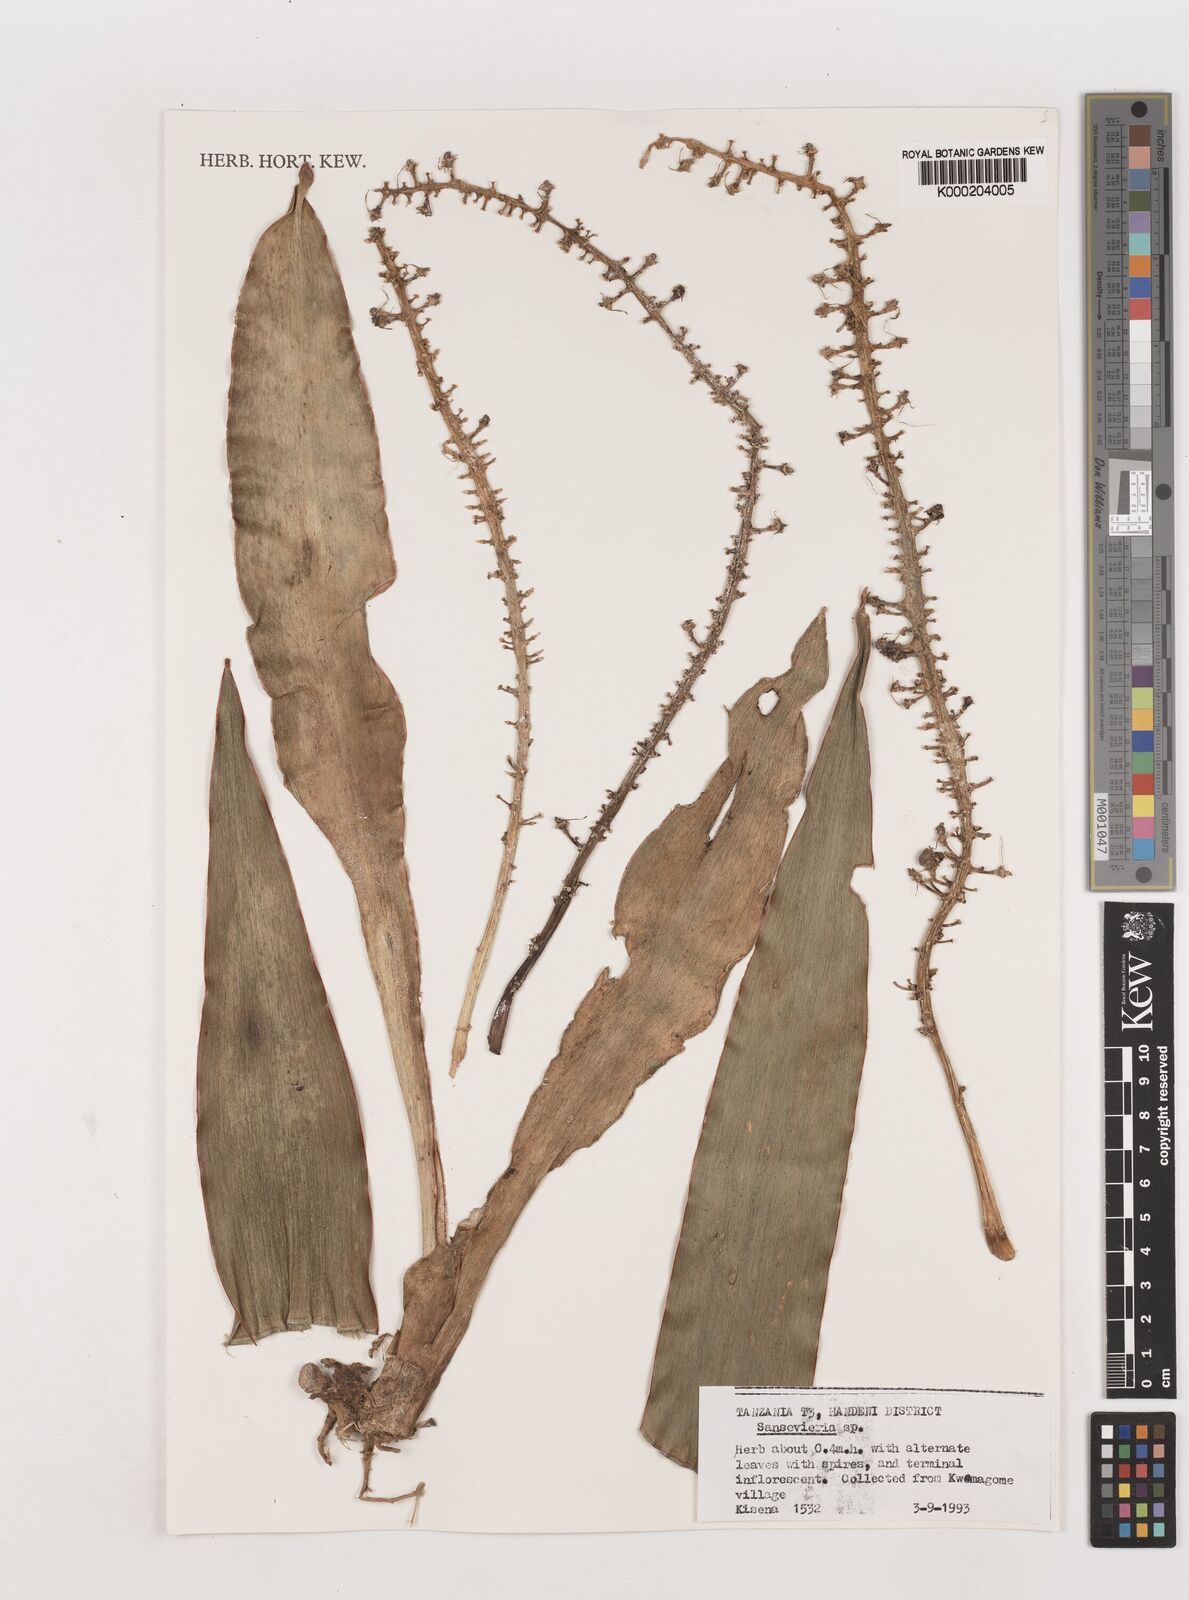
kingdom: Plantae
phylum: Tracheophyta
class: Liliopsida
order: Asparagales
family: Asparagaceae
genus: Dracaena
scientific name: Dracaena
